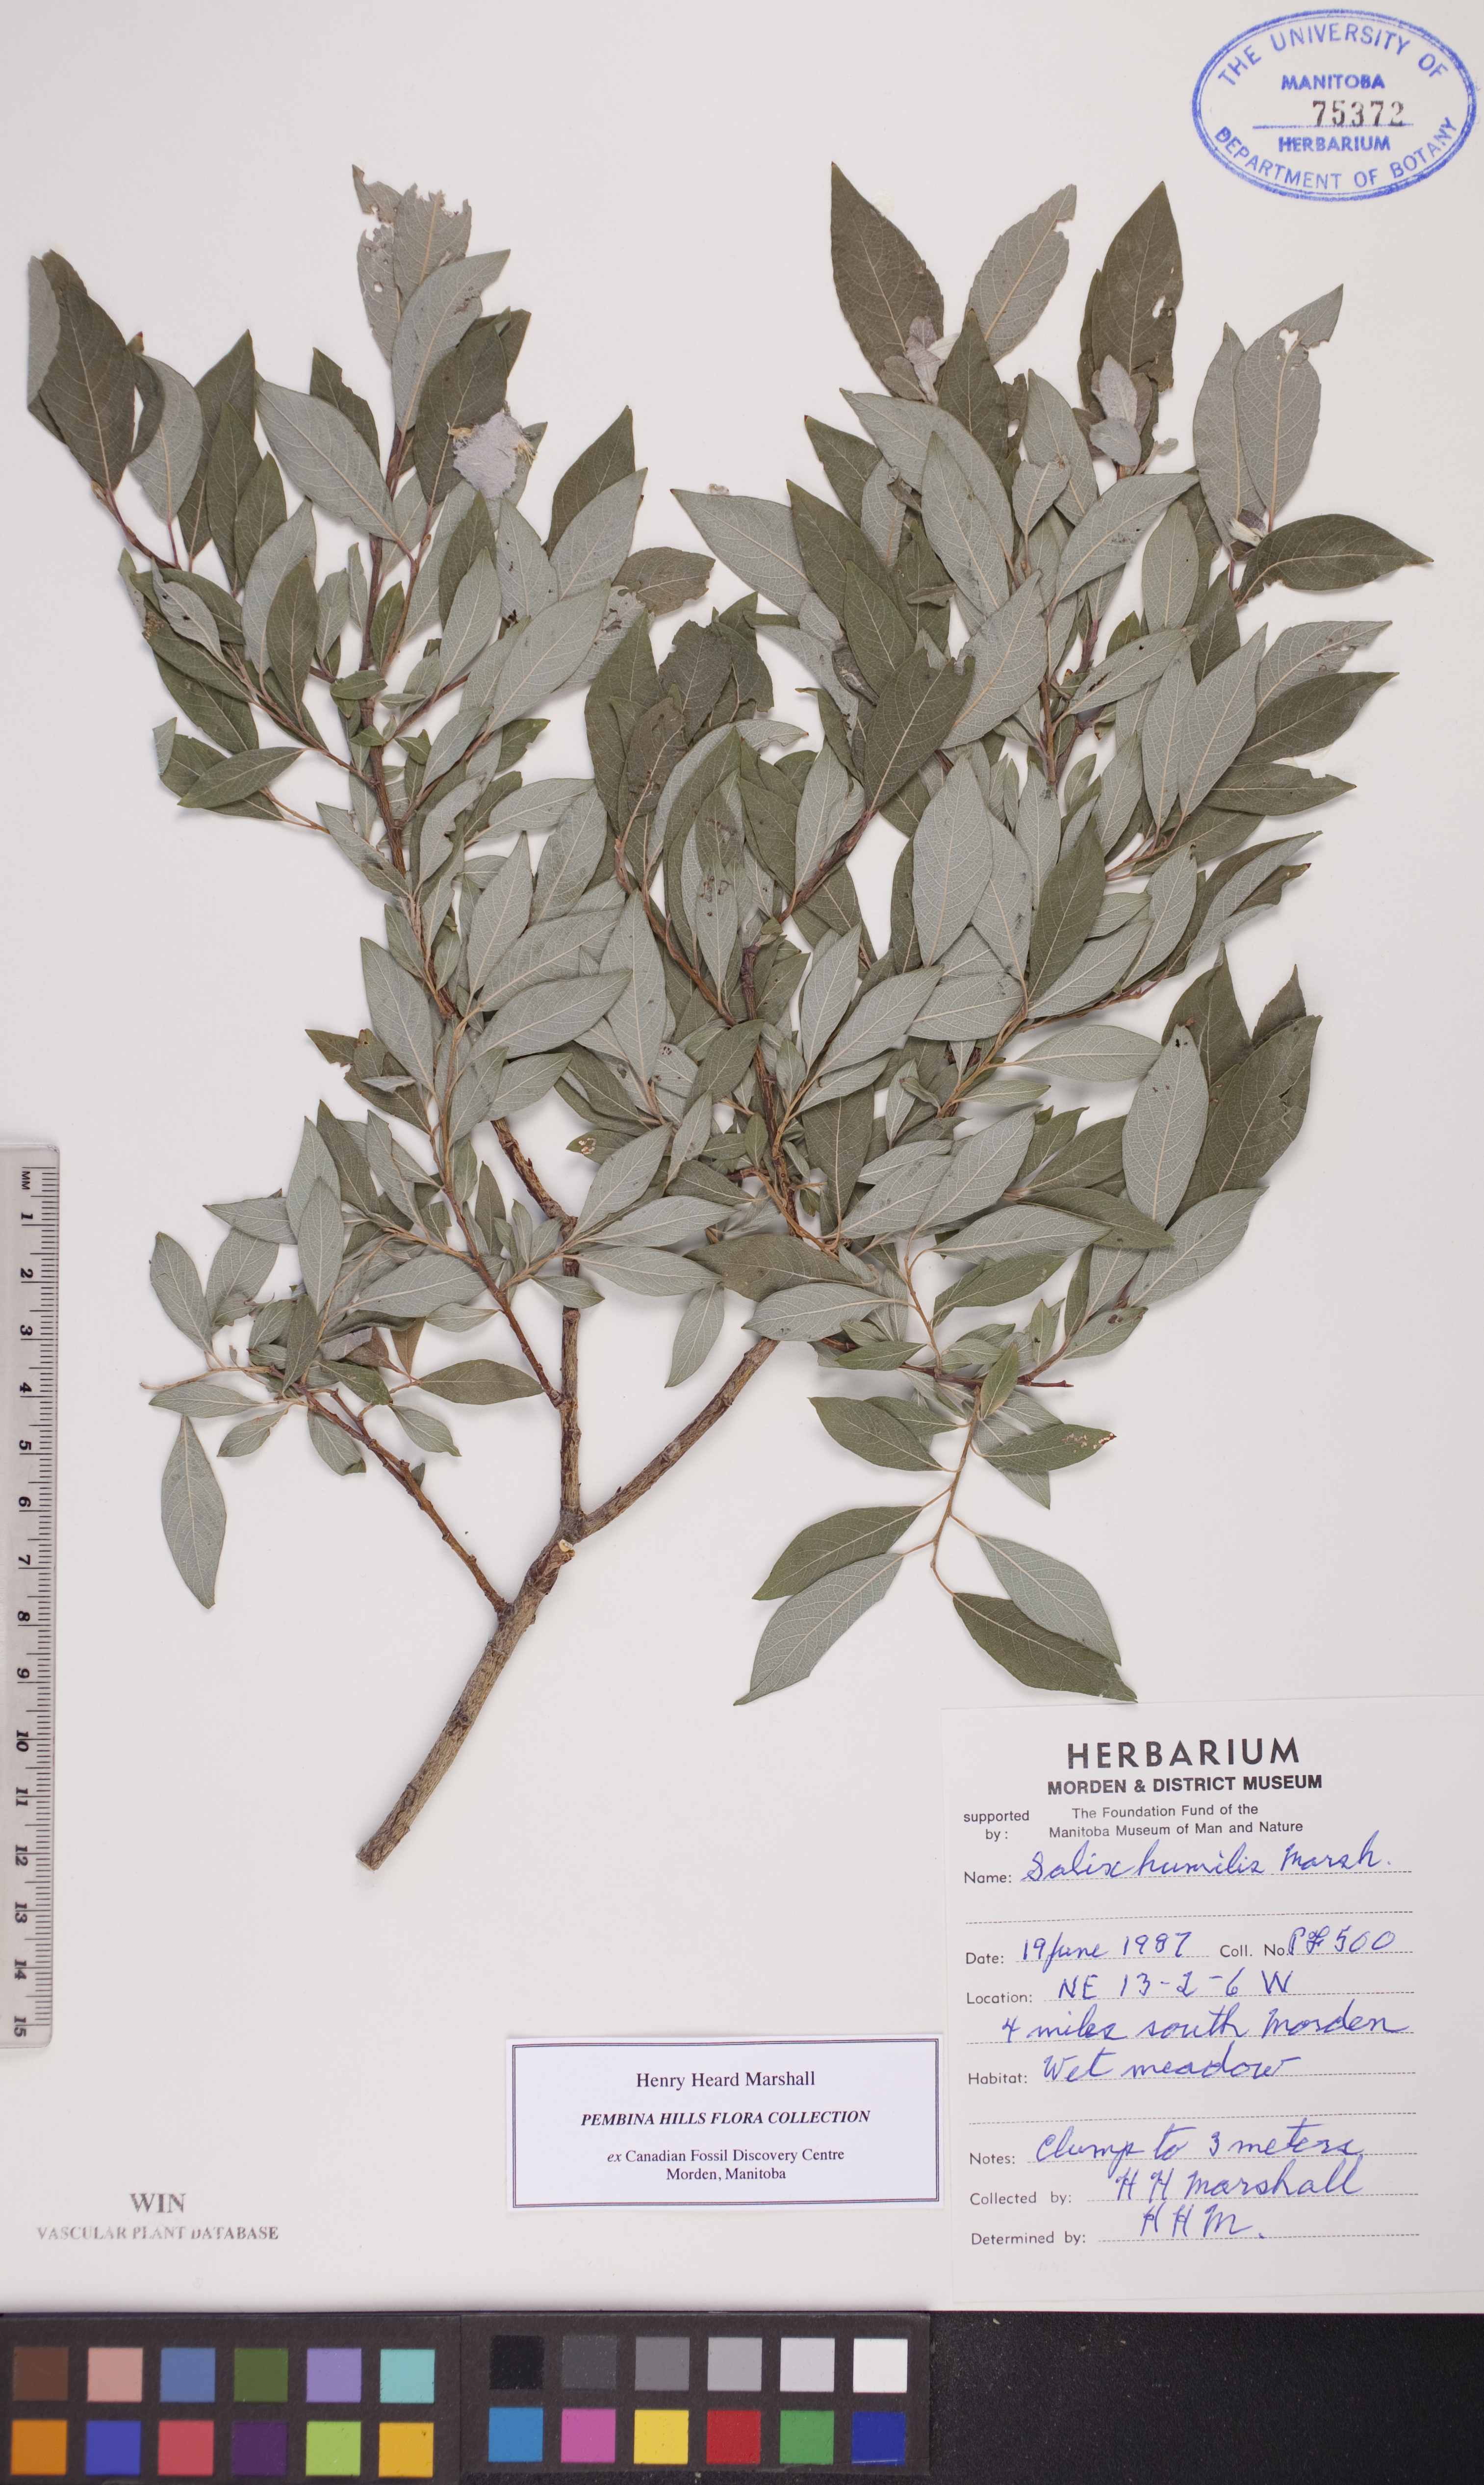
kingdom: Plantae
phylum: Tracheophyta
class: Magnoliopsida
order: Malpighiales
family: Salicaceae
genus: Salix
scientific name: Salix humilis
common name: Prairie willow
